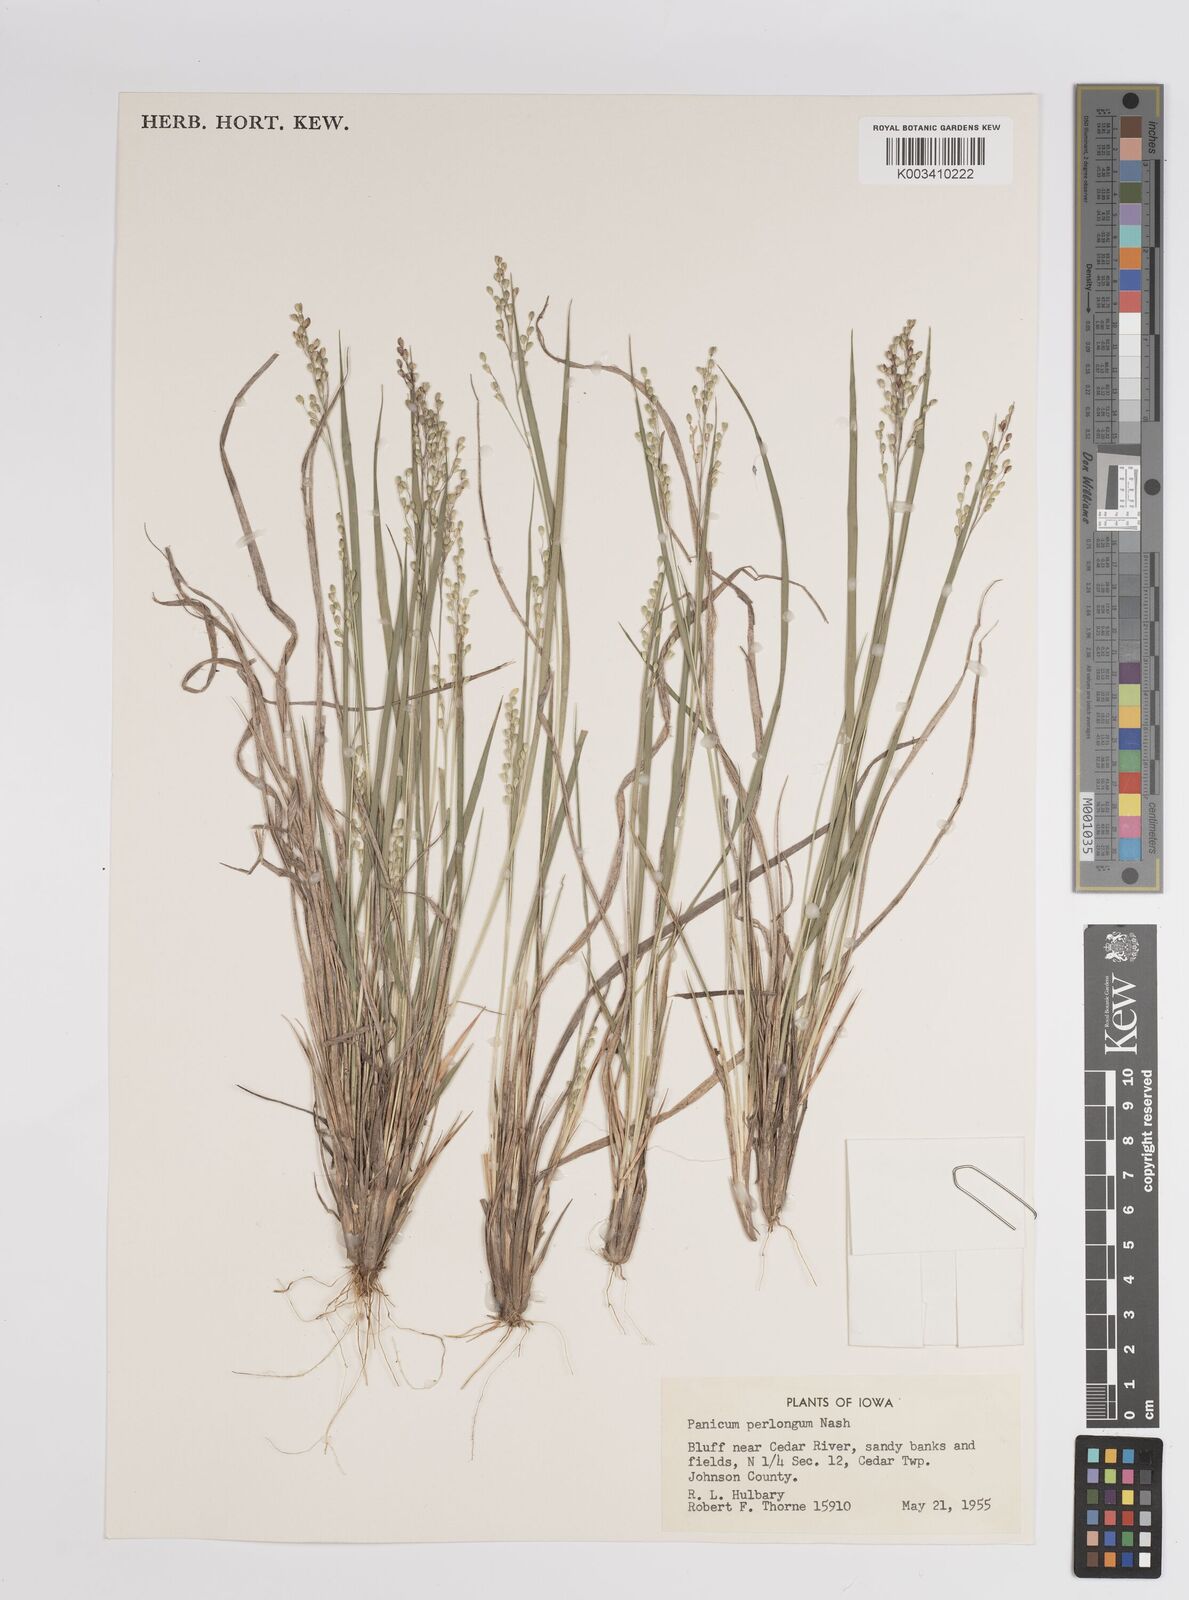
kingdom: Plantae
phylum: Tracheophyta
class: Liliopsida
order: Poales
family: Poaceae
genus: Dichanthelium
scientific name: Dichanthelium linearifolium
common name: Linear-leaved panicgrass
